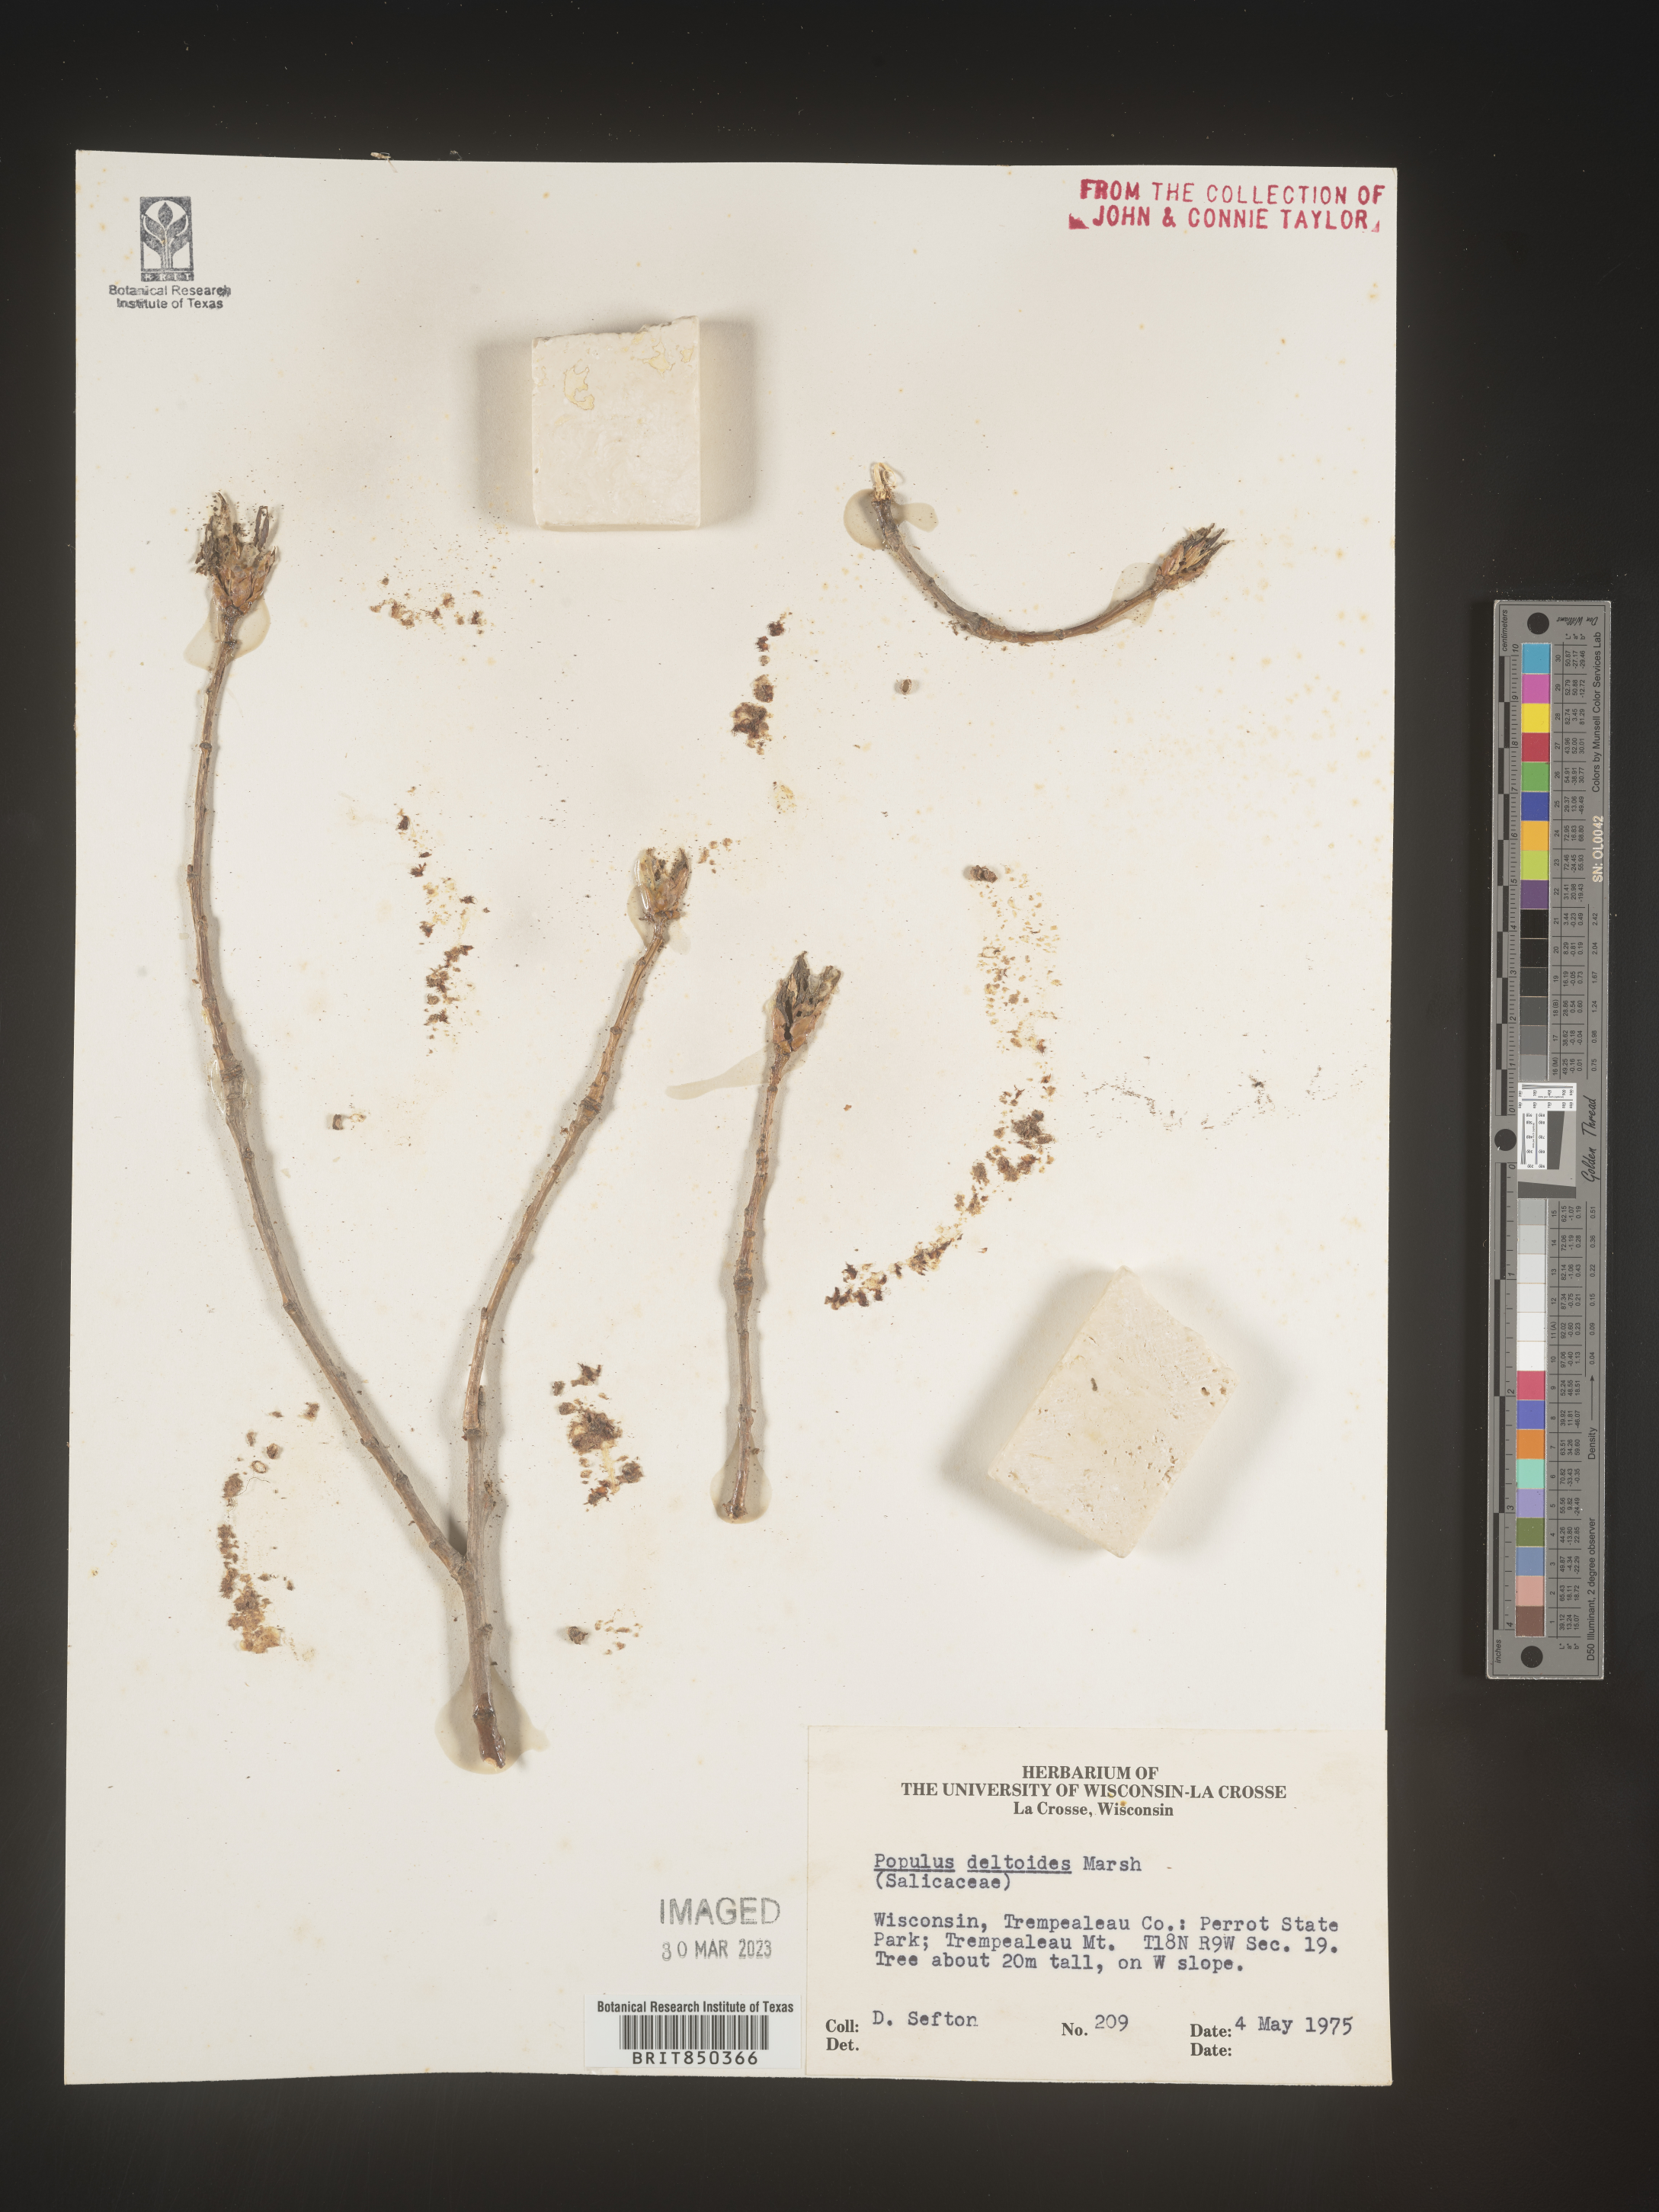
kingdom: Plantae
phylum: Tracheophyta
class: Magnoliopsida
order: Malpighiales
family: Salicaceae
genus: Populus
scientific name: Populus deltoides
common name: Eastern cottonwood
